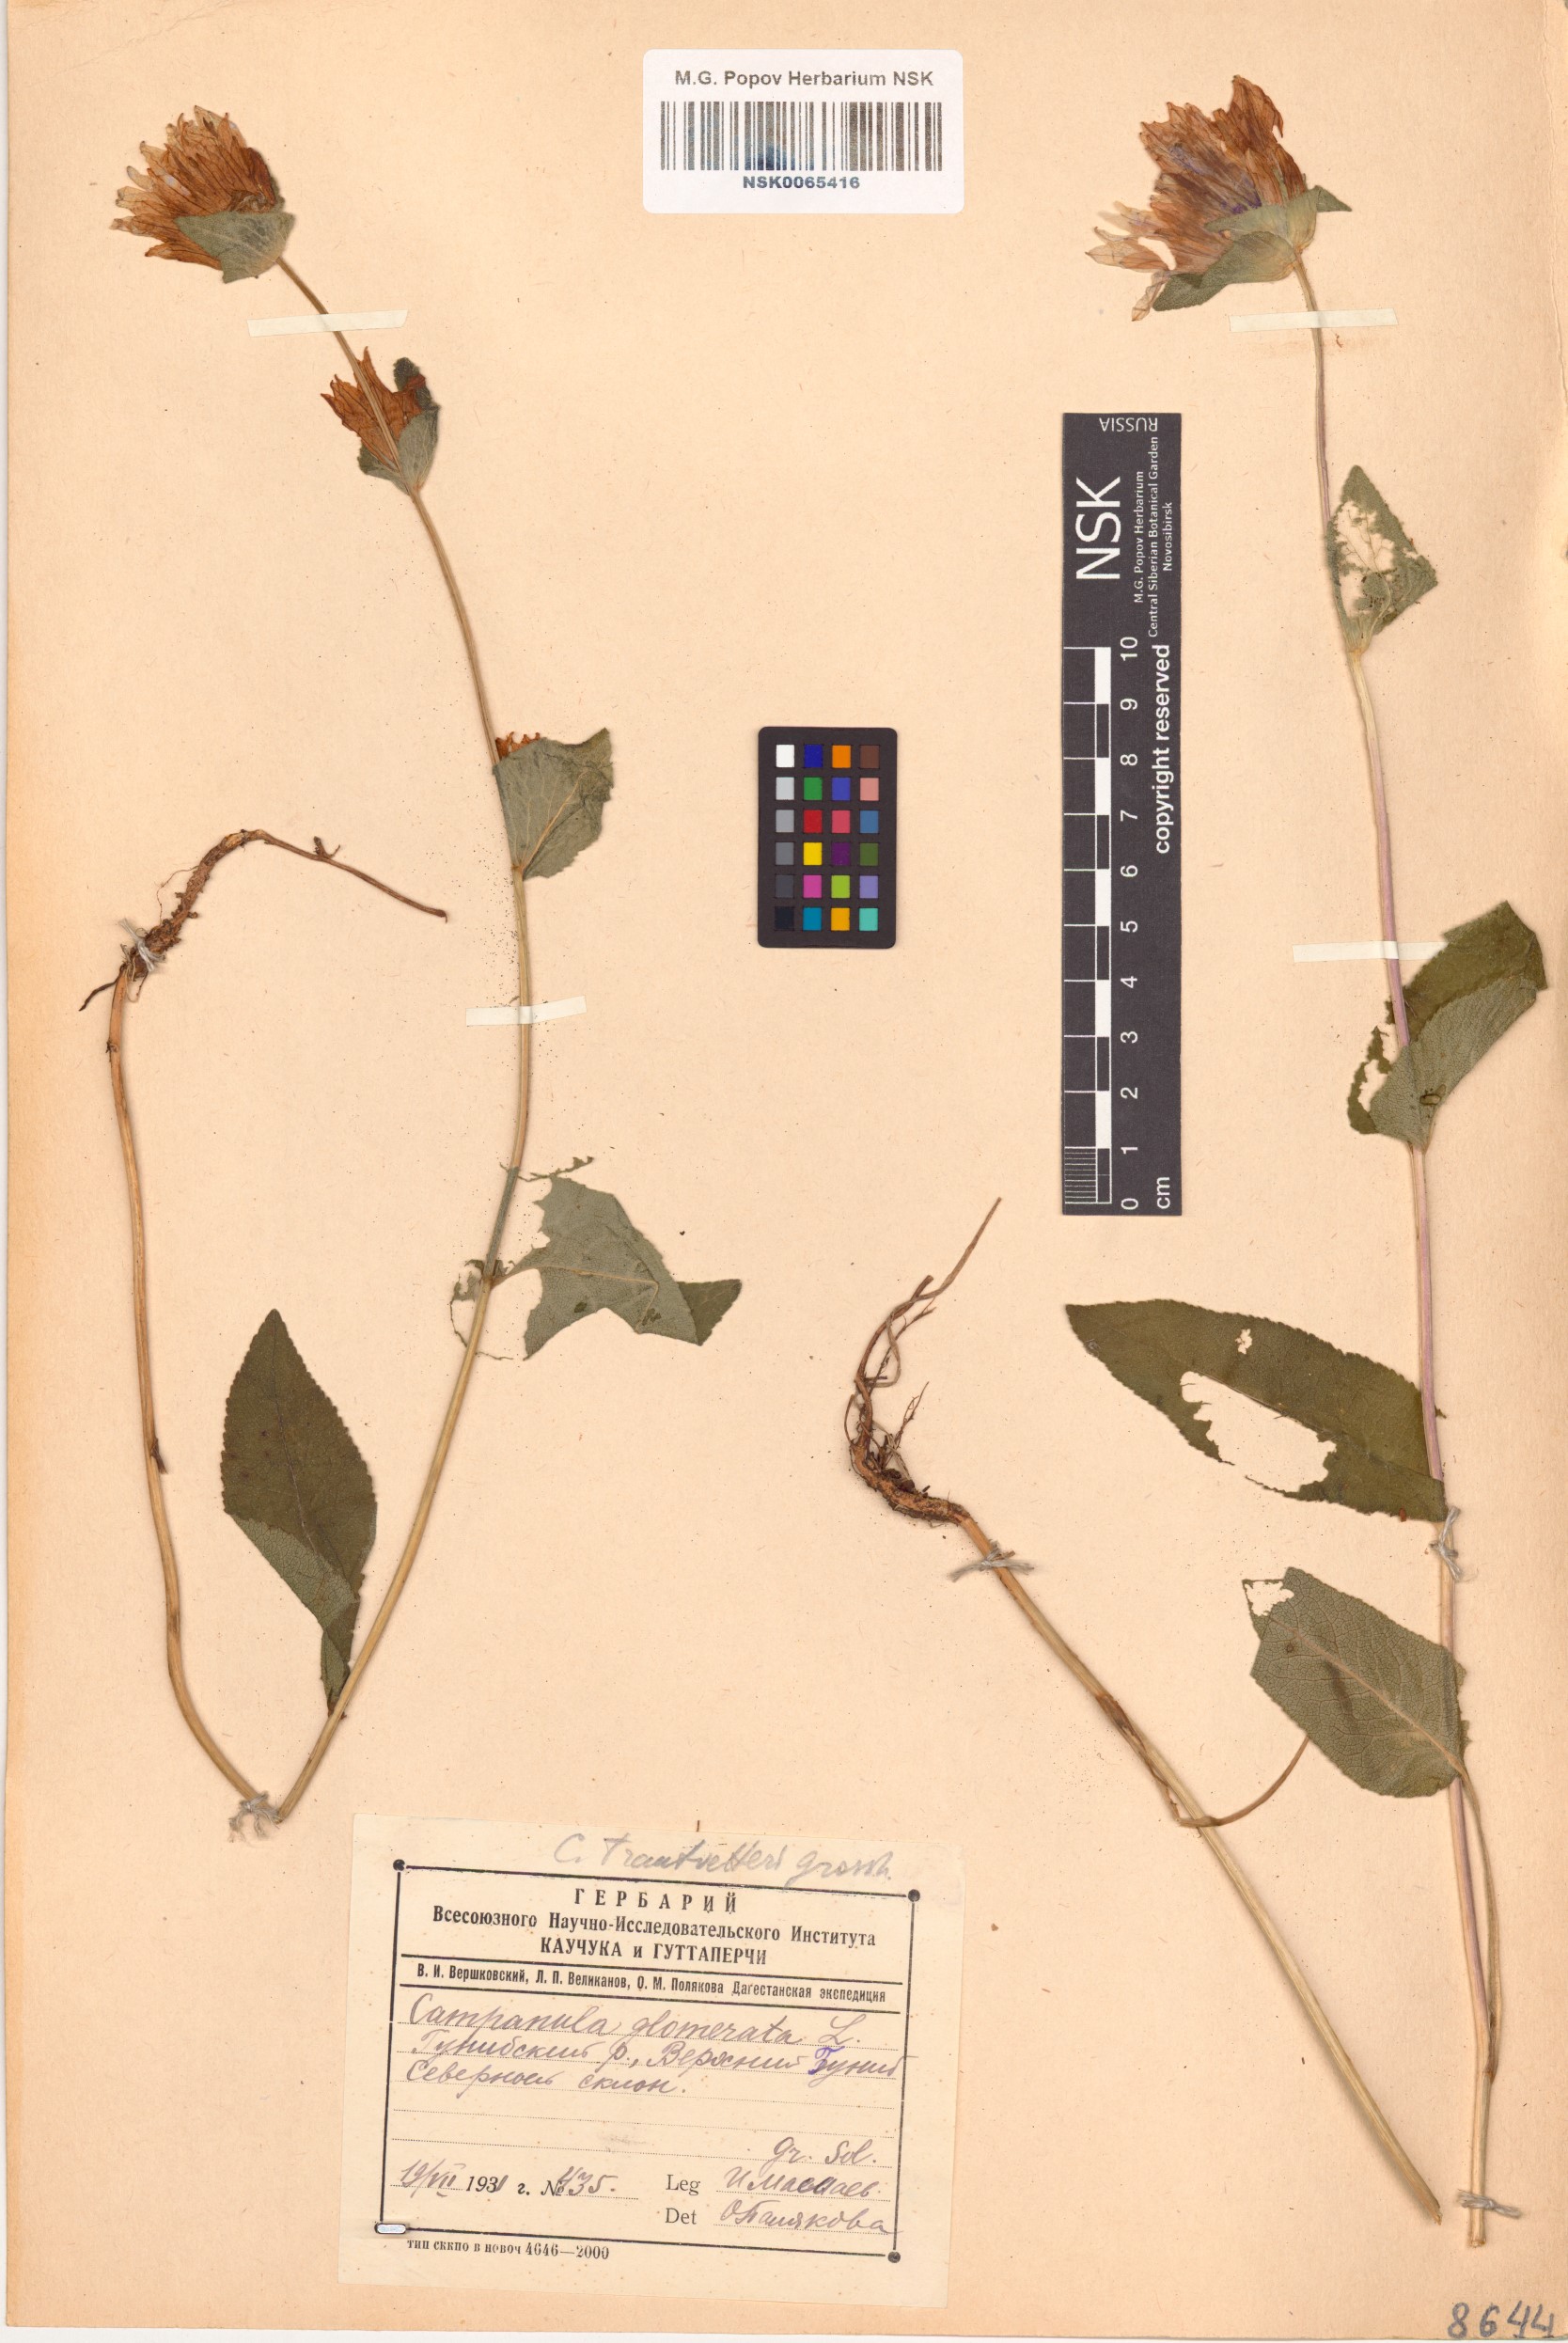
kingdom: Plantae
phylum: Tracheophyta
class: Magnoliopsida
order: Asterales
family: Campanulaceae
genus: Campanula
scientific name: Campanula glomerata
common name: Clustered bellflower
